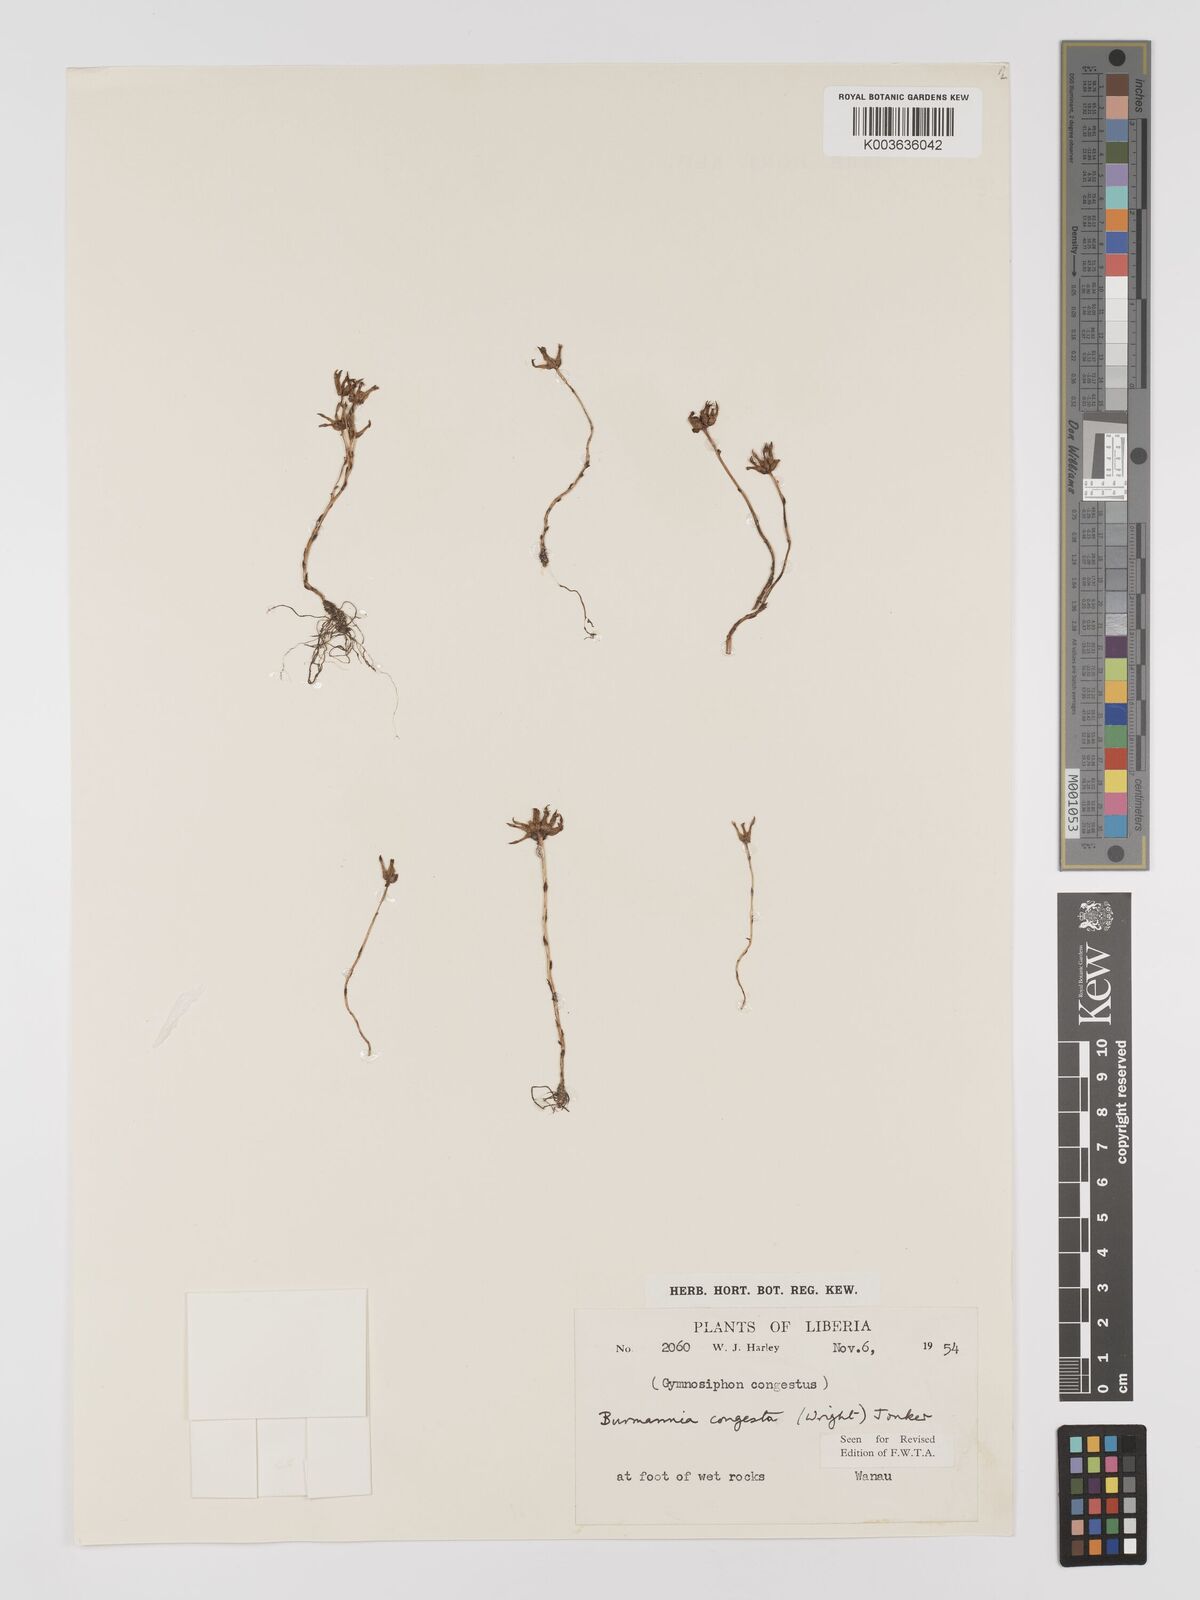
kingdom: Plantae
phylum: Tracheophyta
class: Liliopsida
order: Dioscoreales
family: Burmanniaceae
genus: Campylosiphon
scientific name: Campylosiphon congestus
